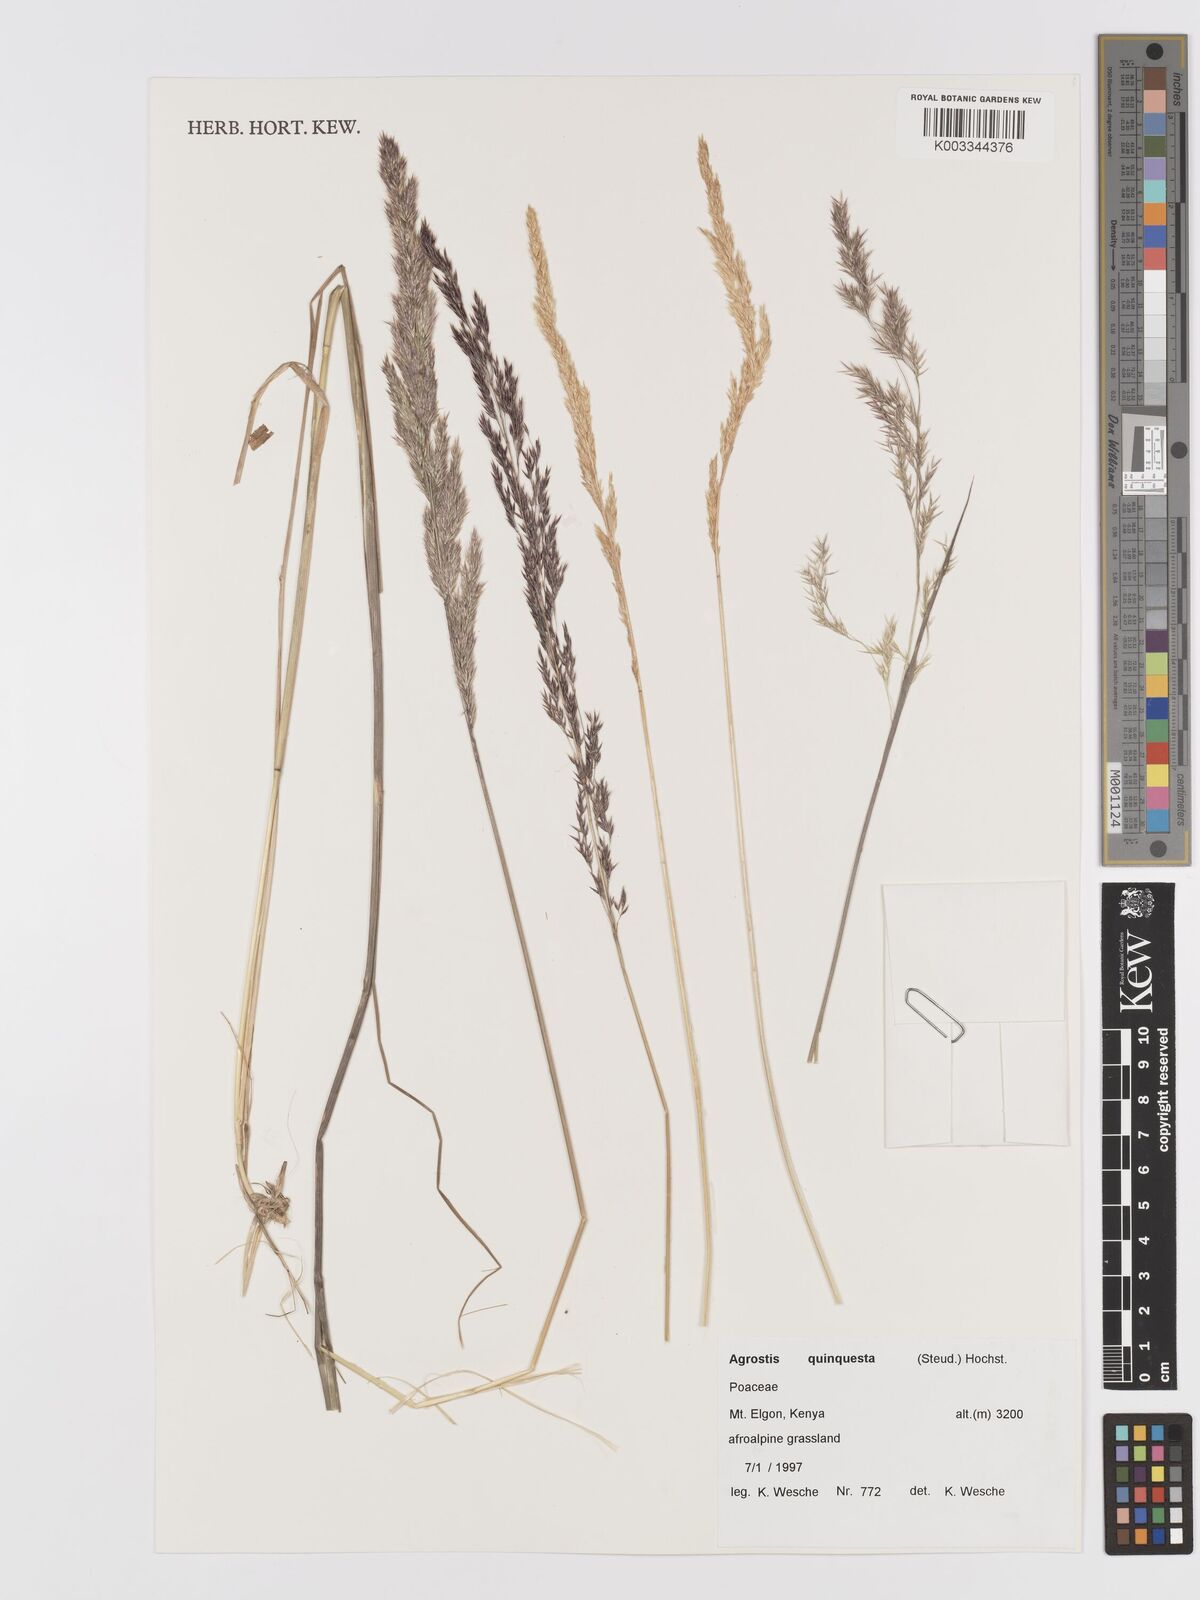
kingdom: Plantae
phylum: Tracheophyta
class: Liliopsida
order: Poales
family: Poaceae
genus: Agrostis
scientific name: Agrostis quinqueseta
